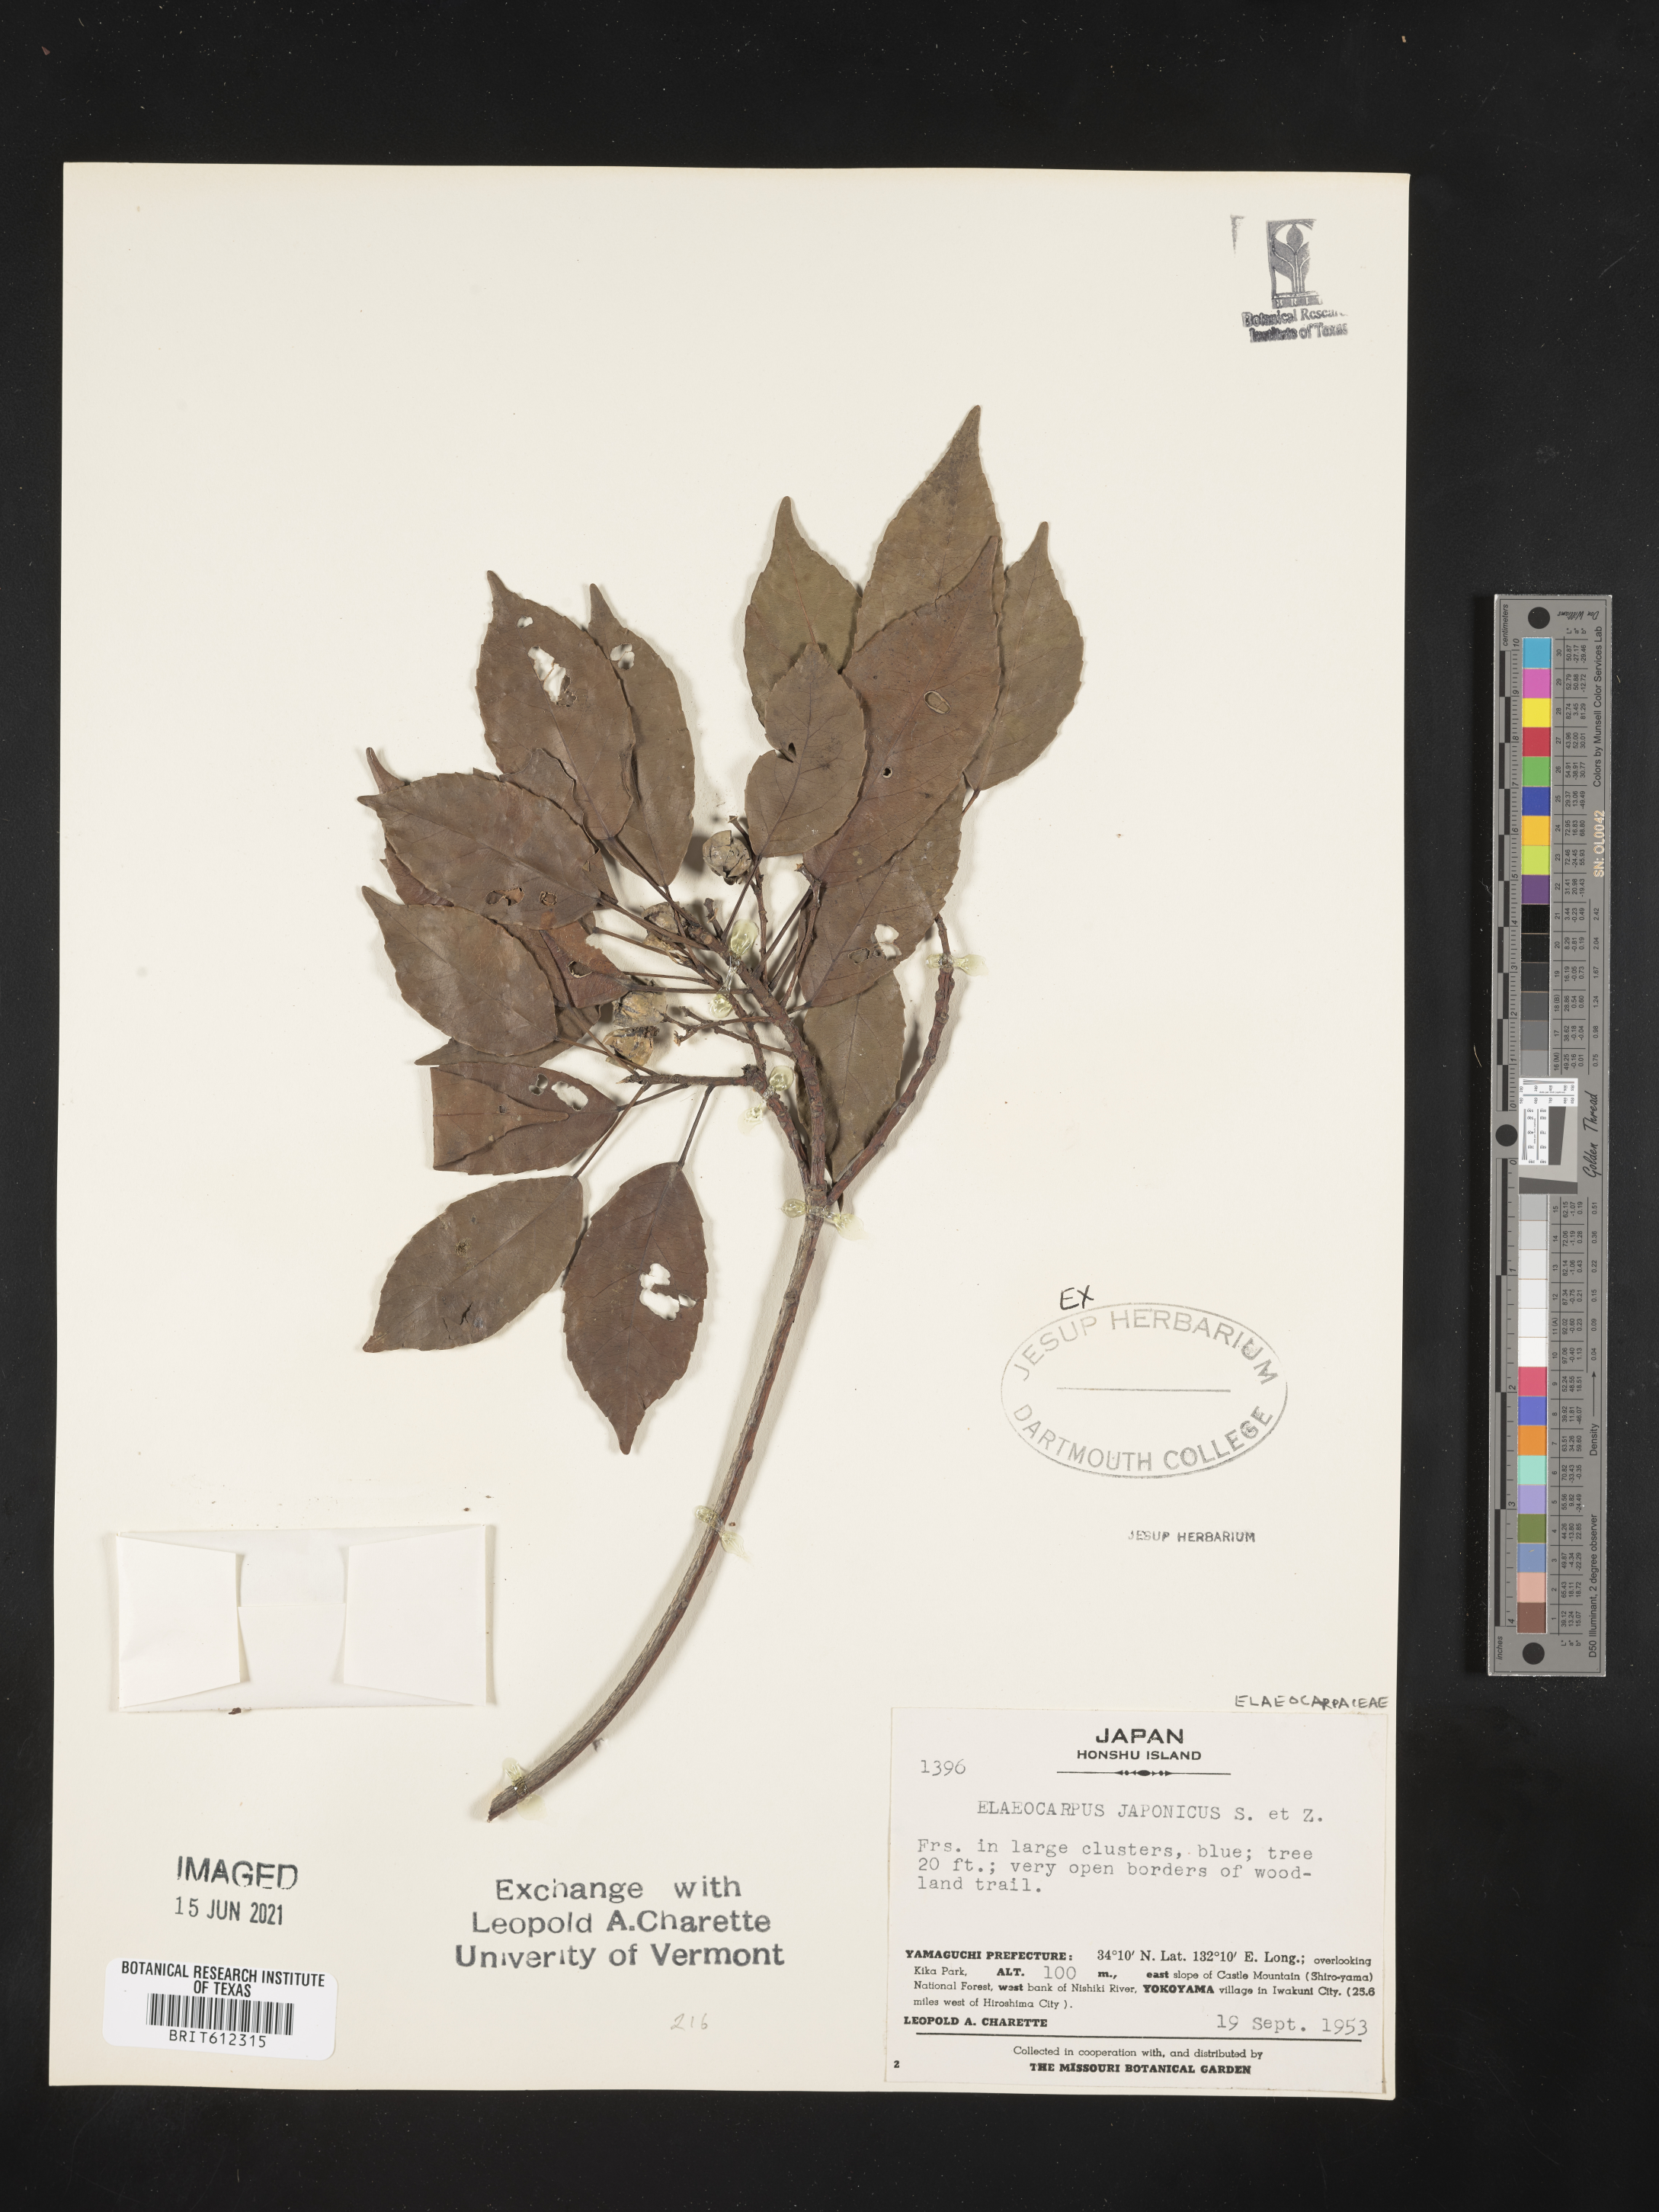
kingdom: Plantae
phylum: Tracheophyta
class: Magnoliopsida
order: Oxalidales
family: Elaeocarpaceae
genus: Elaeocarpus
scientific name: Elaeocarpus japonicus
